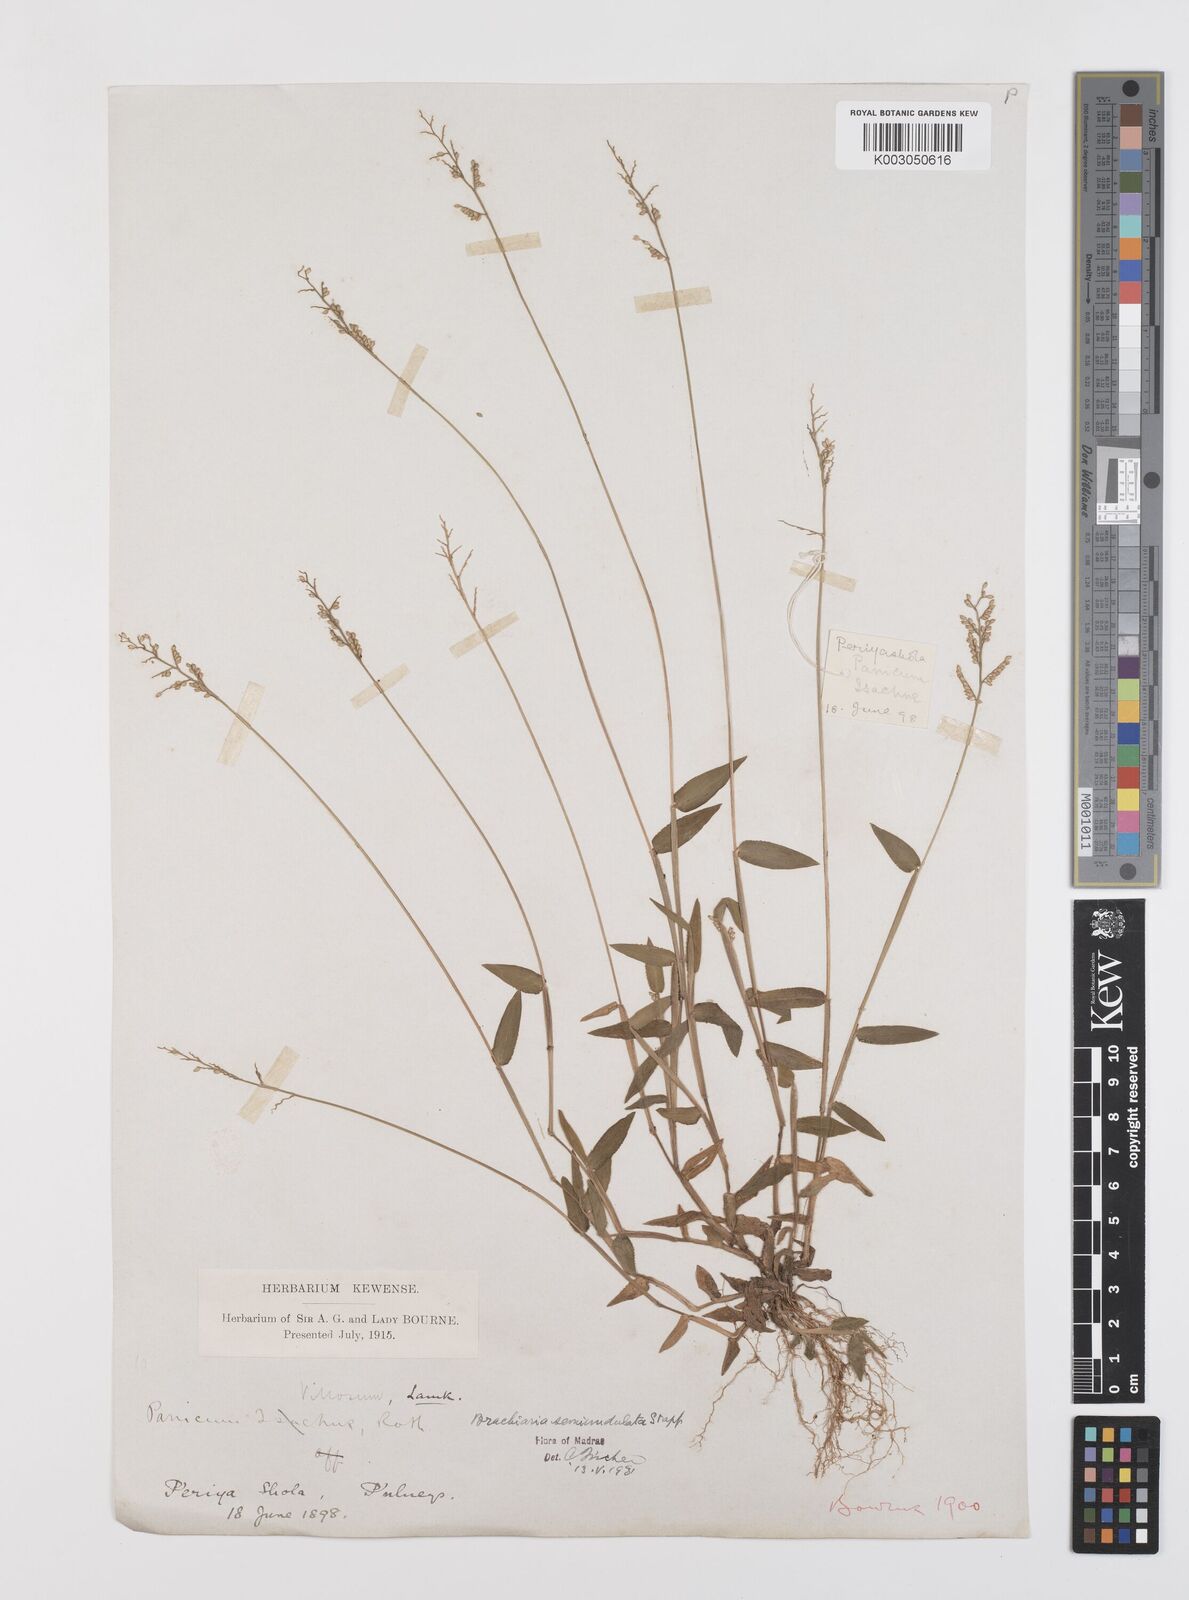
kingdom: Plantae
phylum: Tracheophyta
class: Liliopsida
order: Poales
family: Poaceae
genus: Urochloa
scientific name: Urochloa semiundulata
